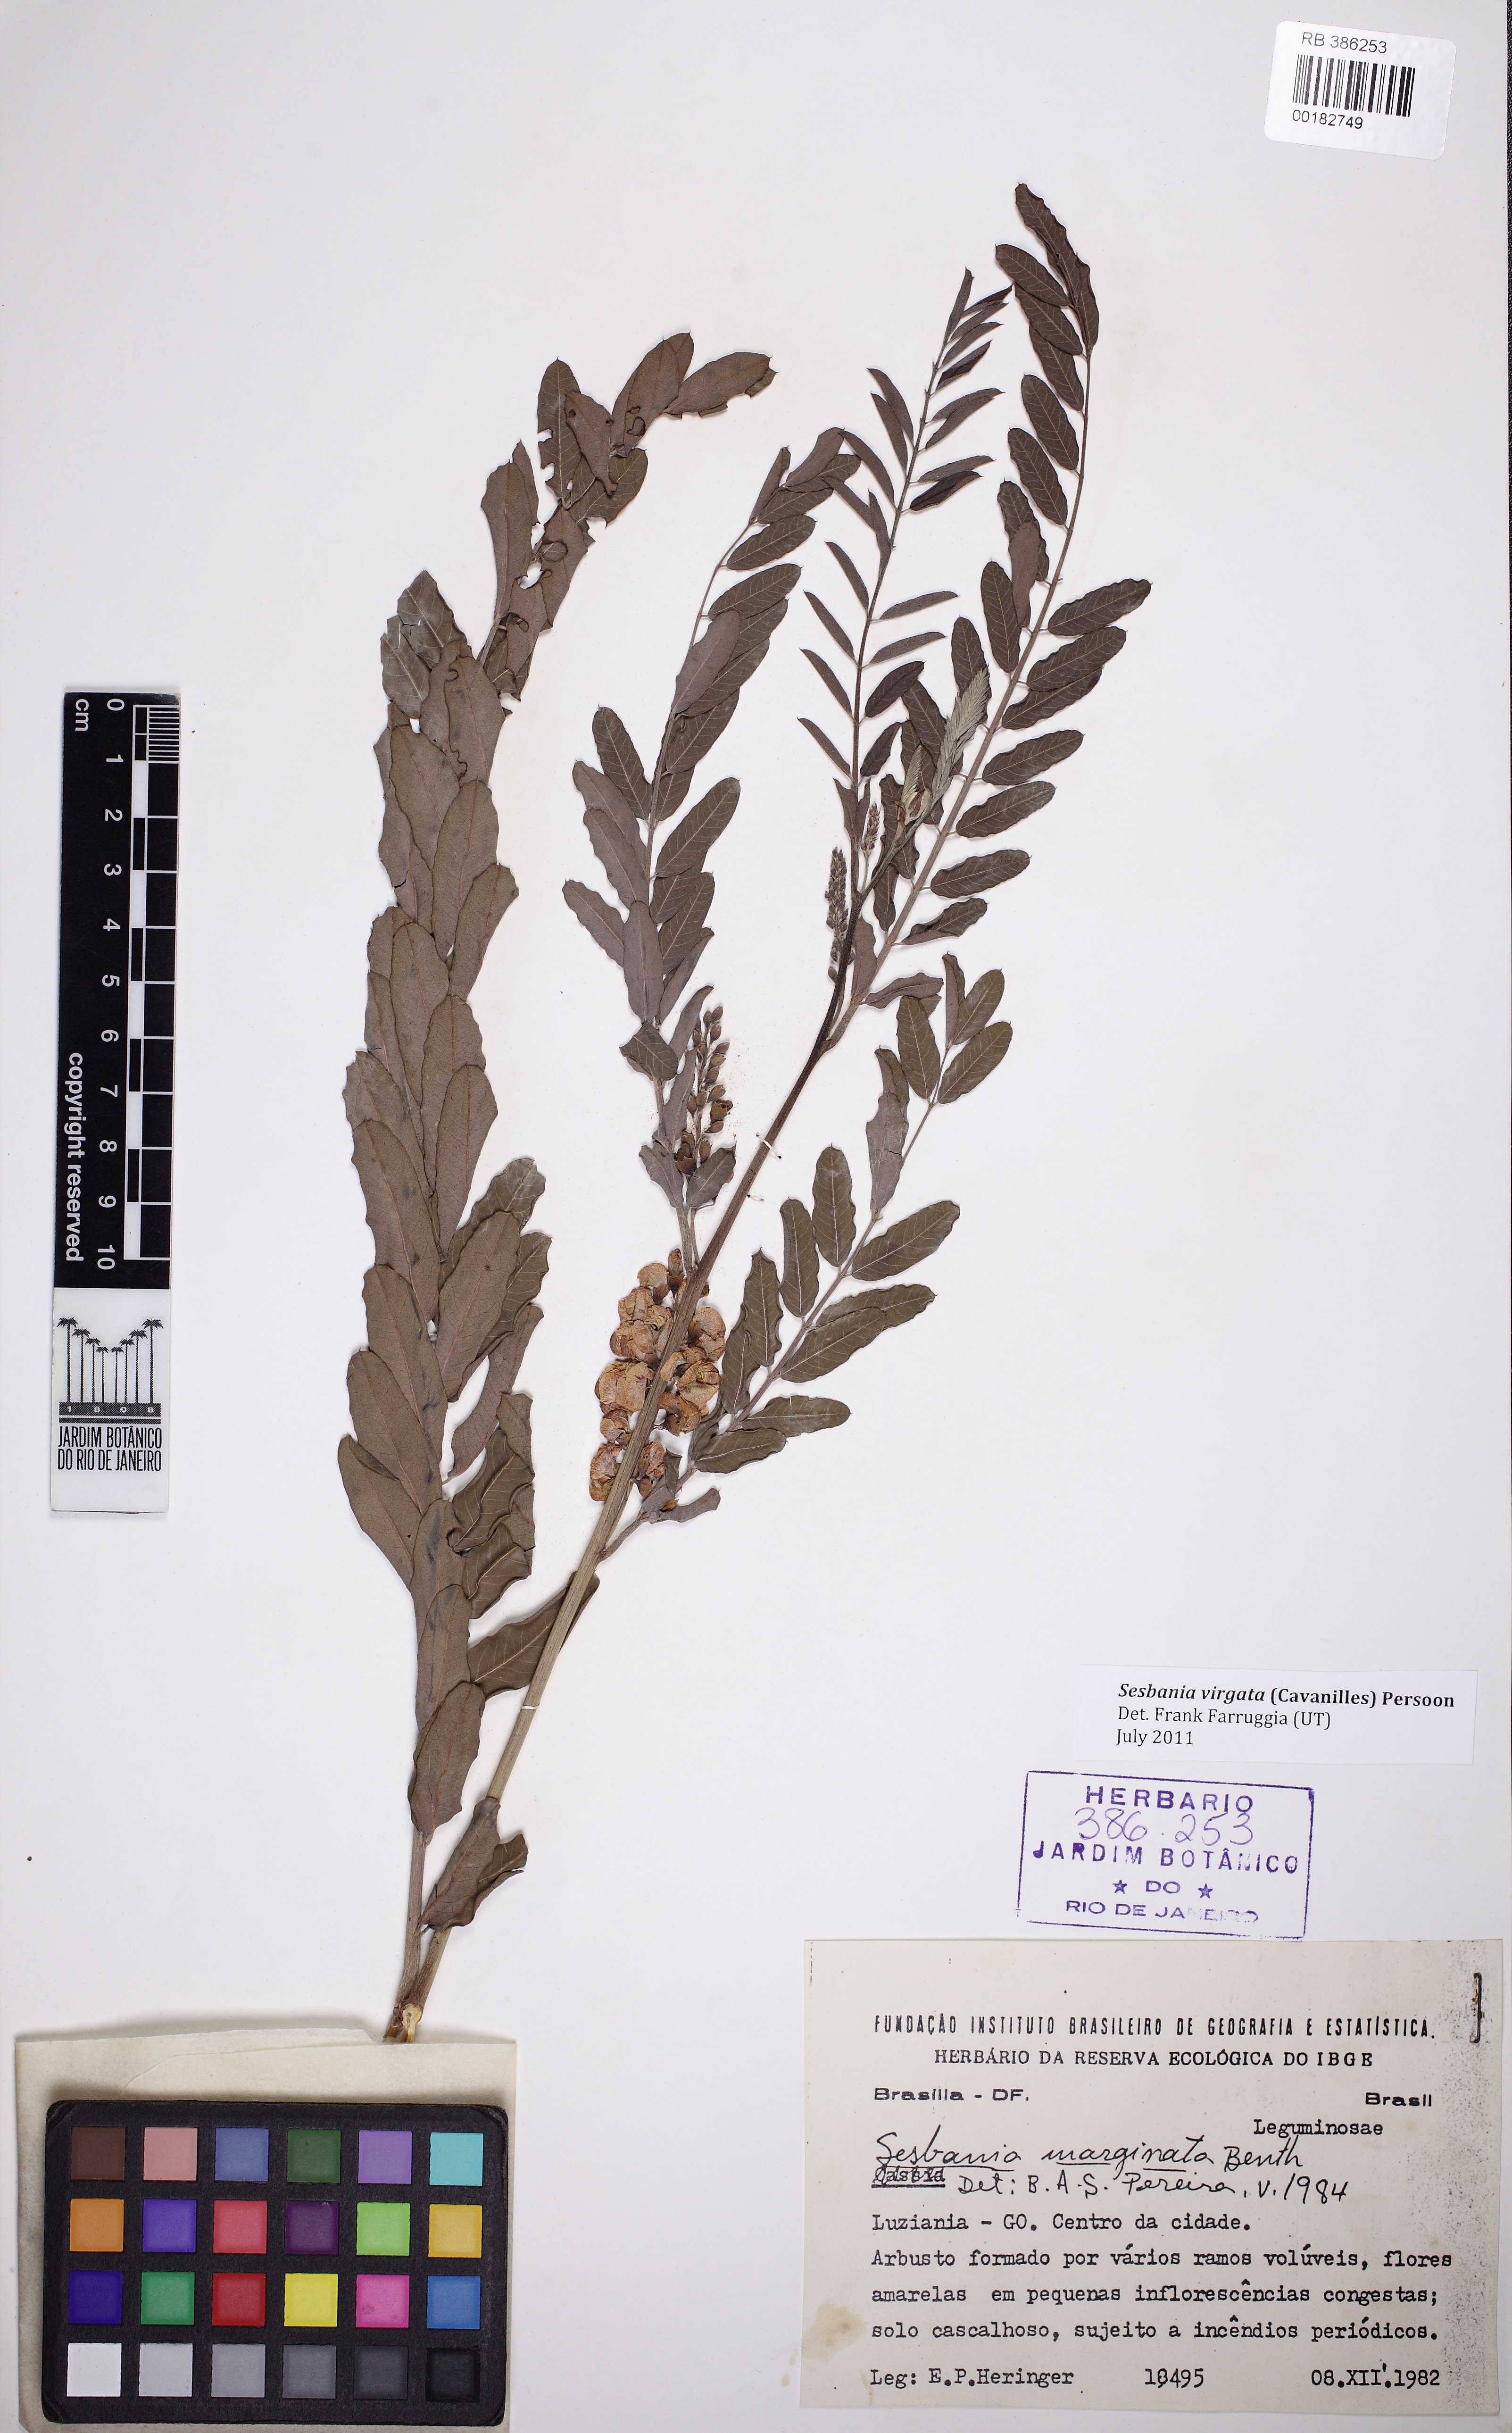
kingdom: Plantae
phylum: Tracheophyta
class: Magnoliopsida
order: Fabales
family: Fabaceae
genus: Sesbania
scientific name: Sesbania virgata
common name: Wand riverhemp
